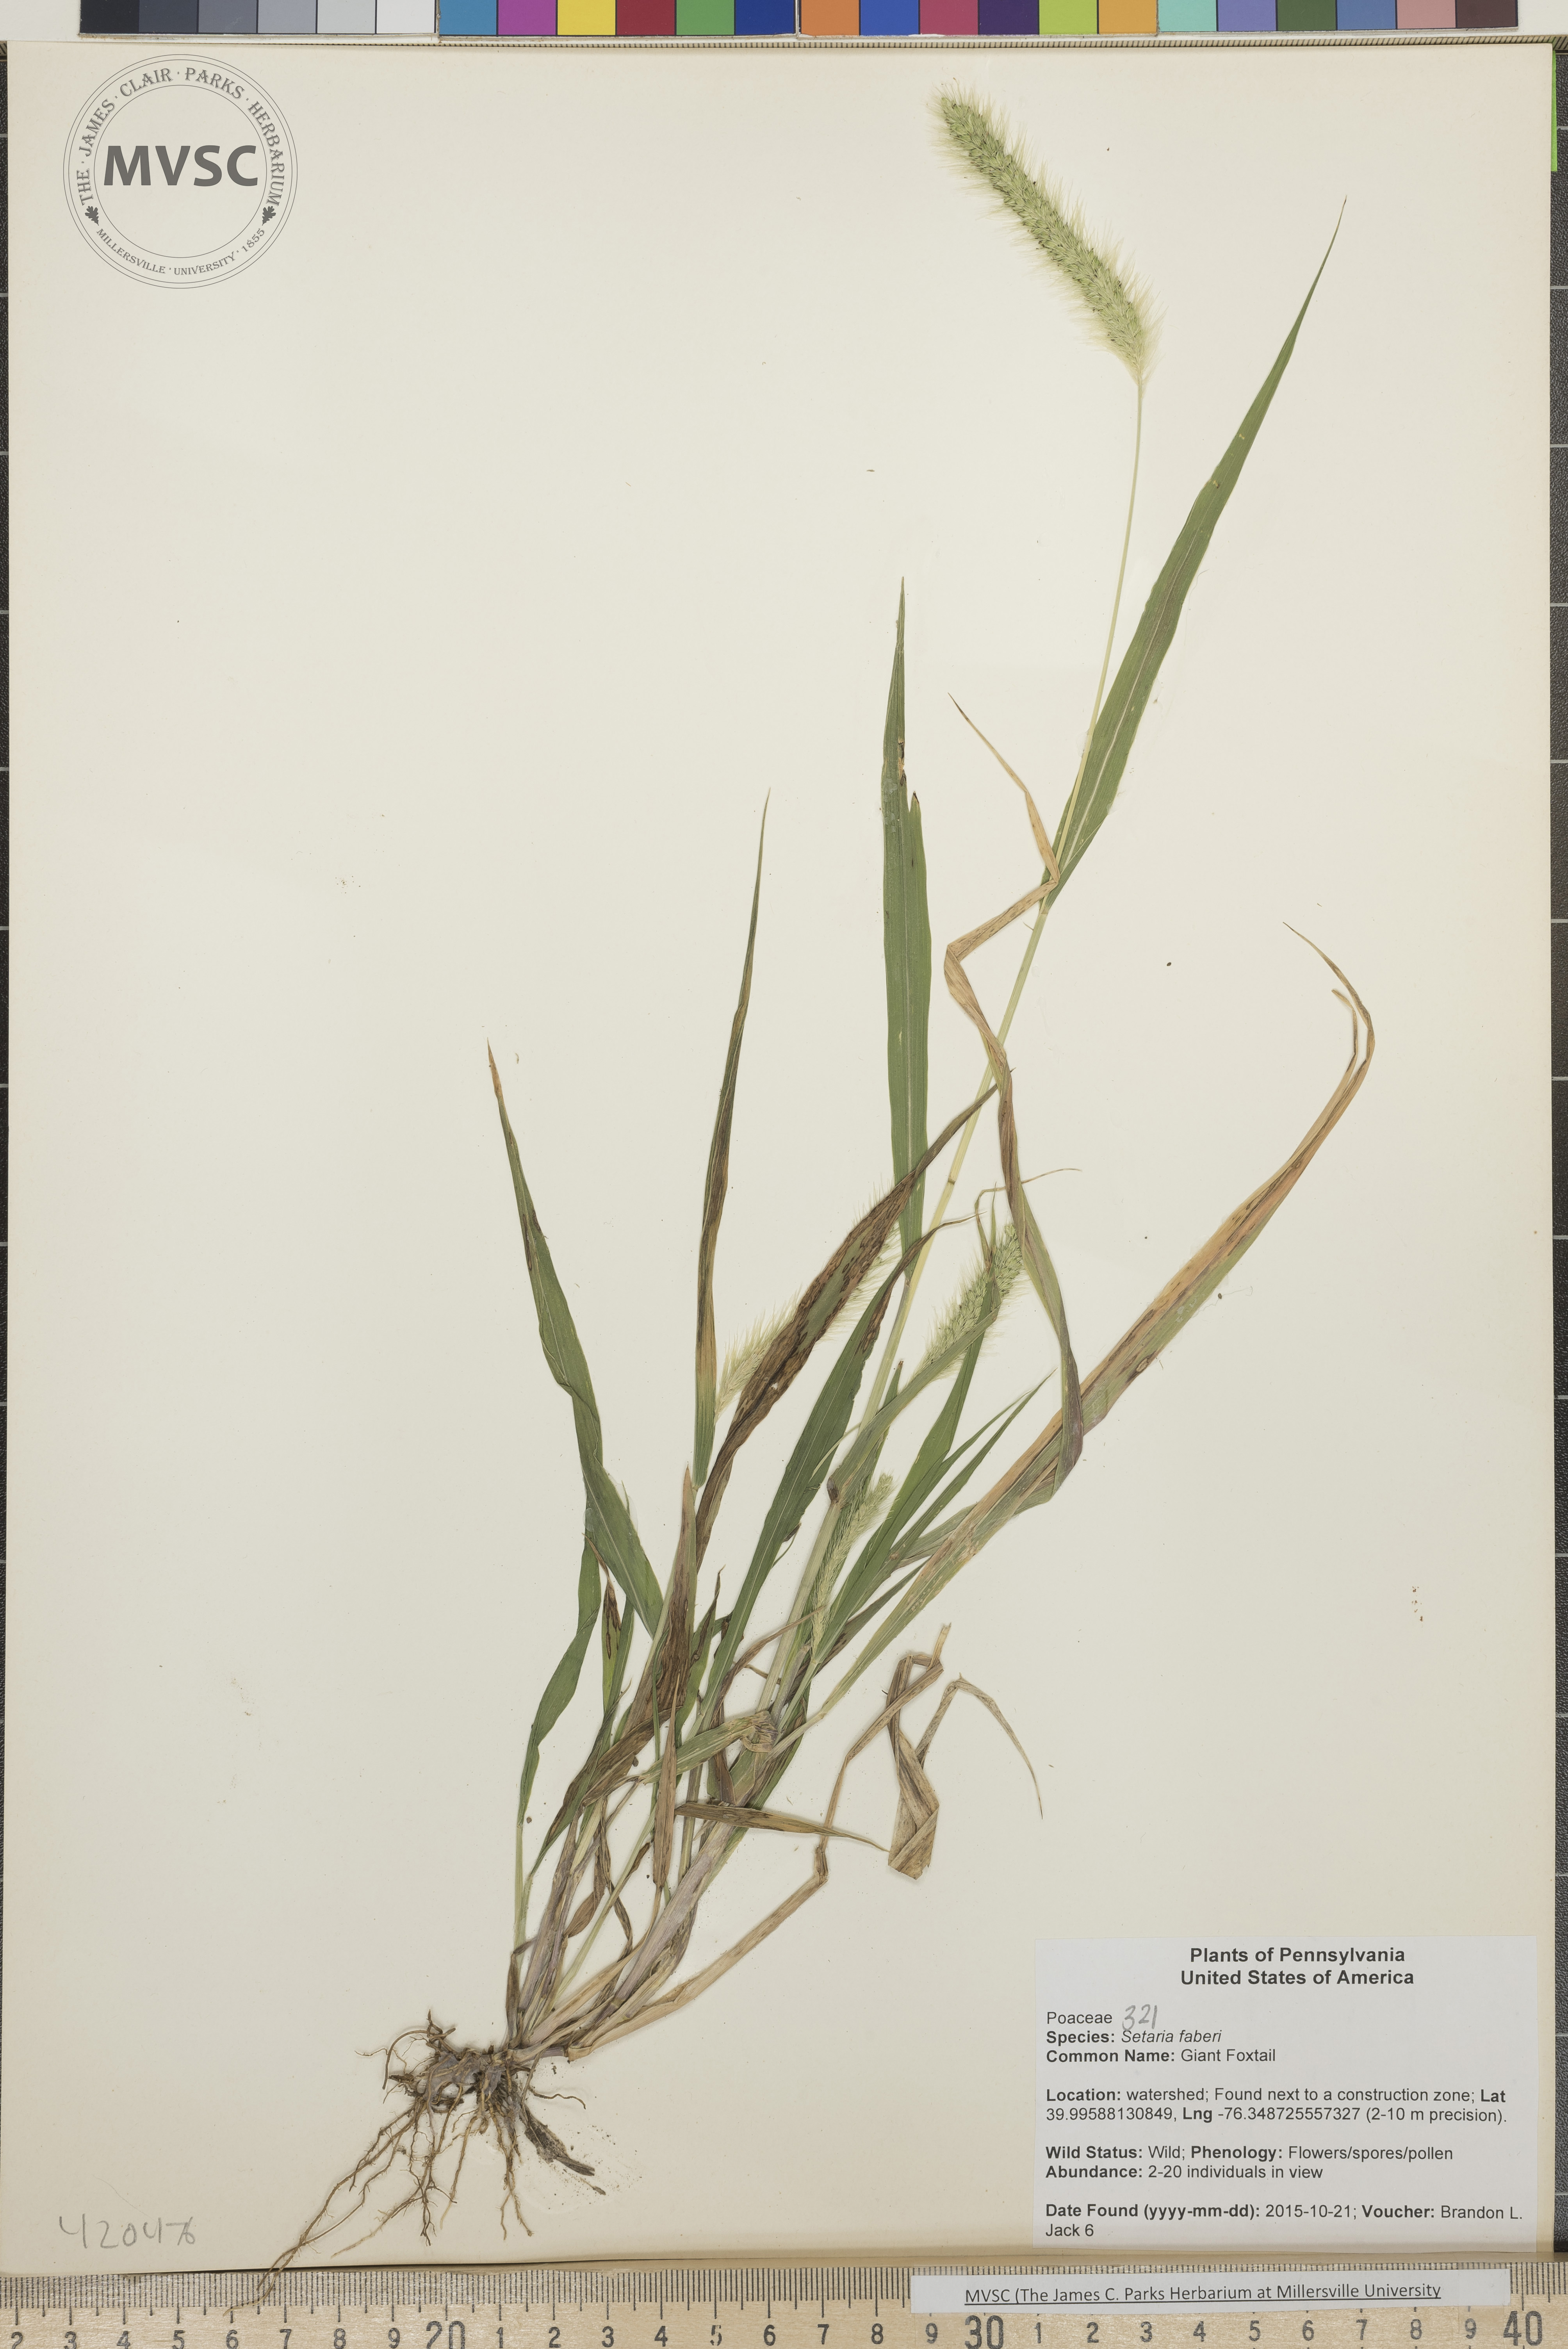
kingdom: Plantae
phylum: Tracheophyta
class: Liliopsida
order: Poales
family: Poaceae
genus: Setaria
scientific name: Setaria faberi
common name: Giant Foxtail
